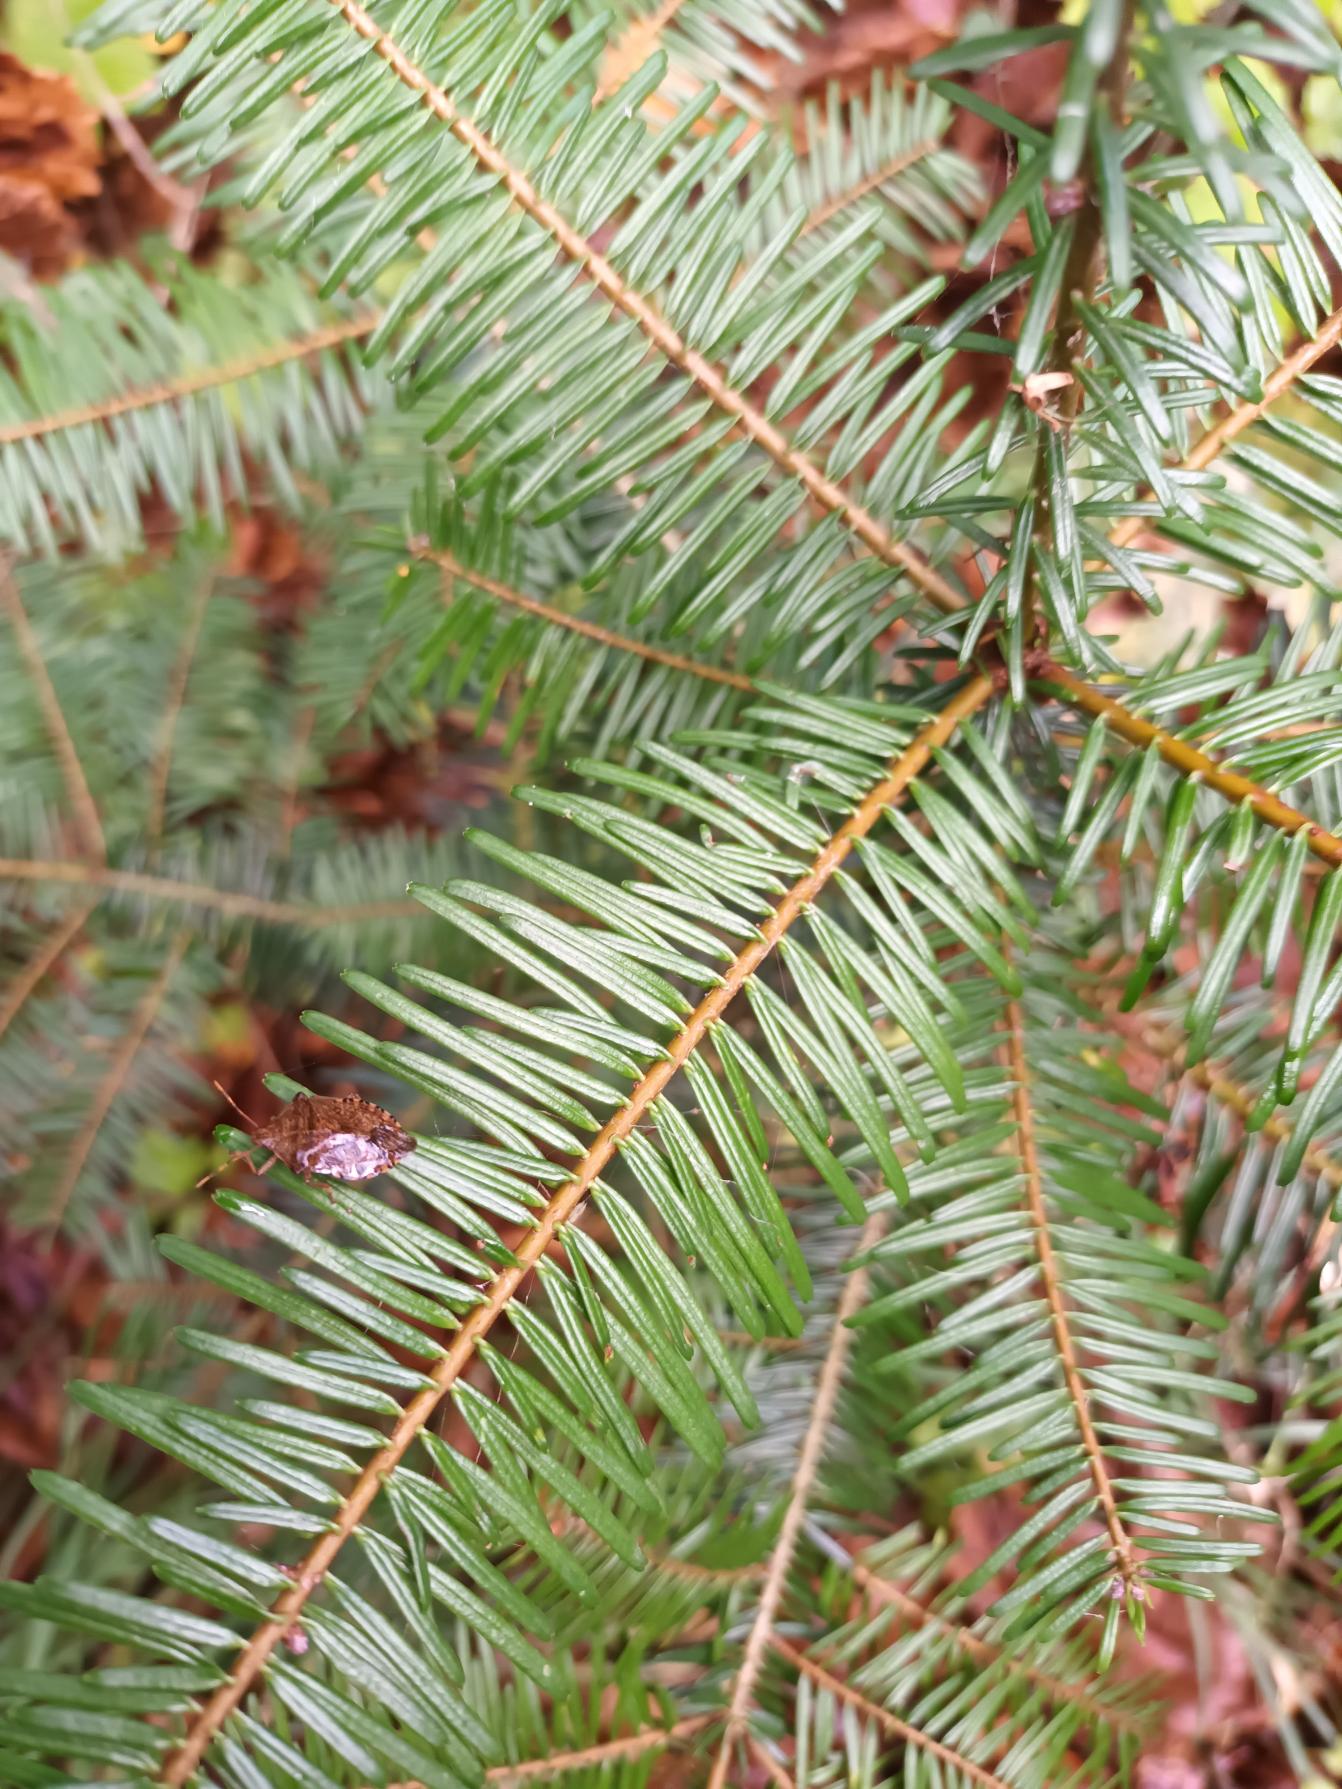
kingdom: Plantae
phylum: Tracheophyta
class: Pinopsida
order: Pinales
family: Pinaceae
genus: Abies
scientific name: Abies grandis
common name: Kæmpegran
